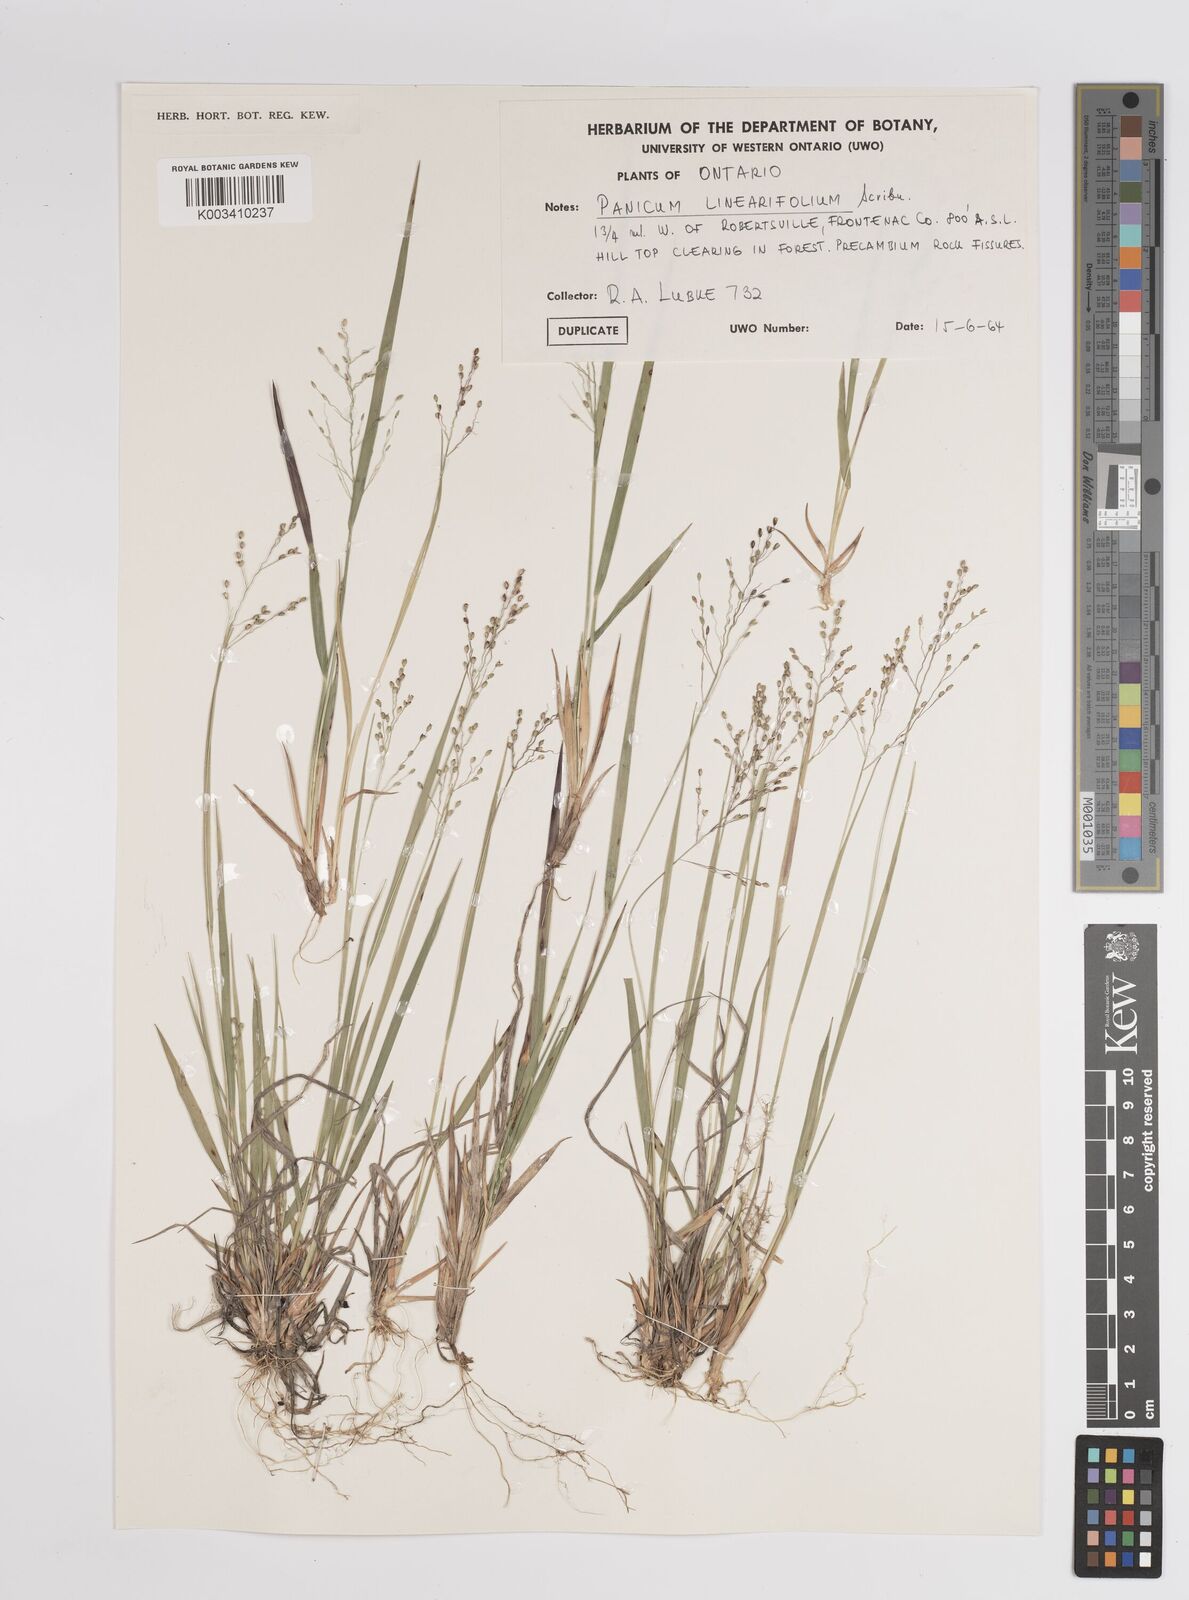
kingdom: Plantae
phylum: Tracheophyta
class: Liliopsida
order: Poales
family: Poaceae
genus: Dichanthelium
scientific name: Dichanthelium linearifolium
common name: Linear-leaved panicgrass
